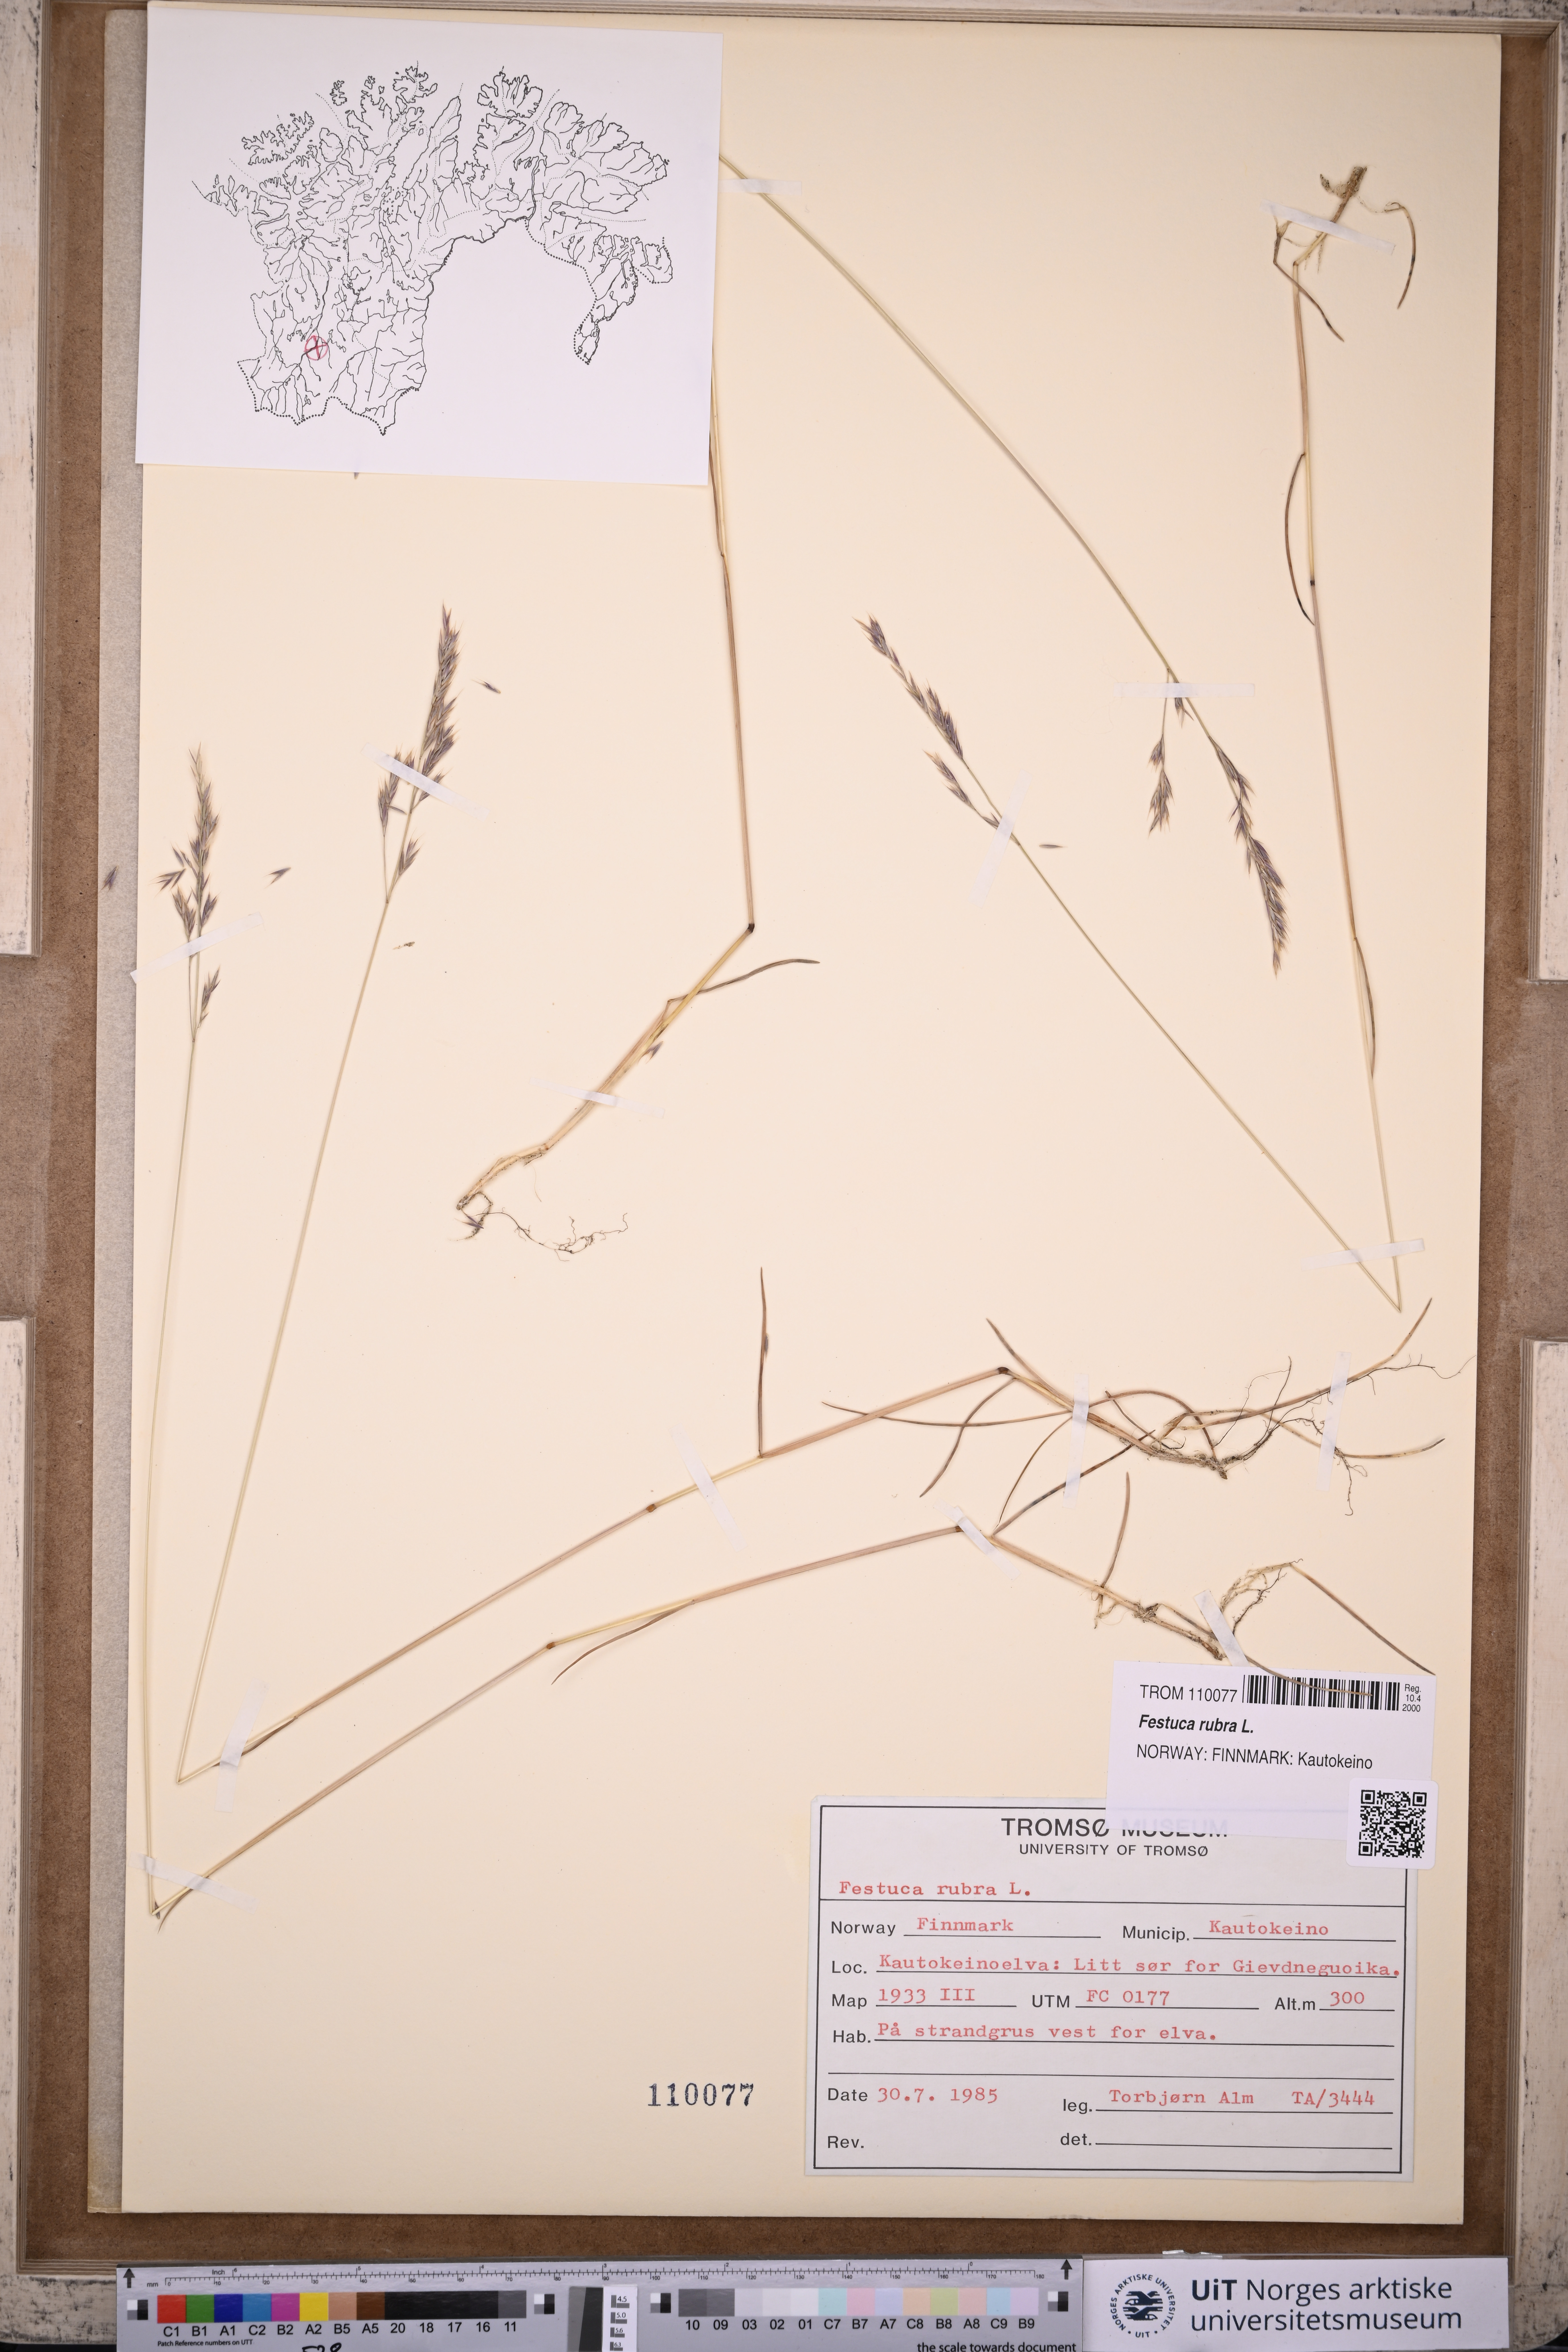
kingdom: Plantae
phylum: Tracheophyta
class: Liliopsida
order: Poales
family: Poaceae
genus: Festuca
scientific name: Festuca rubra
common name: Red fescue
